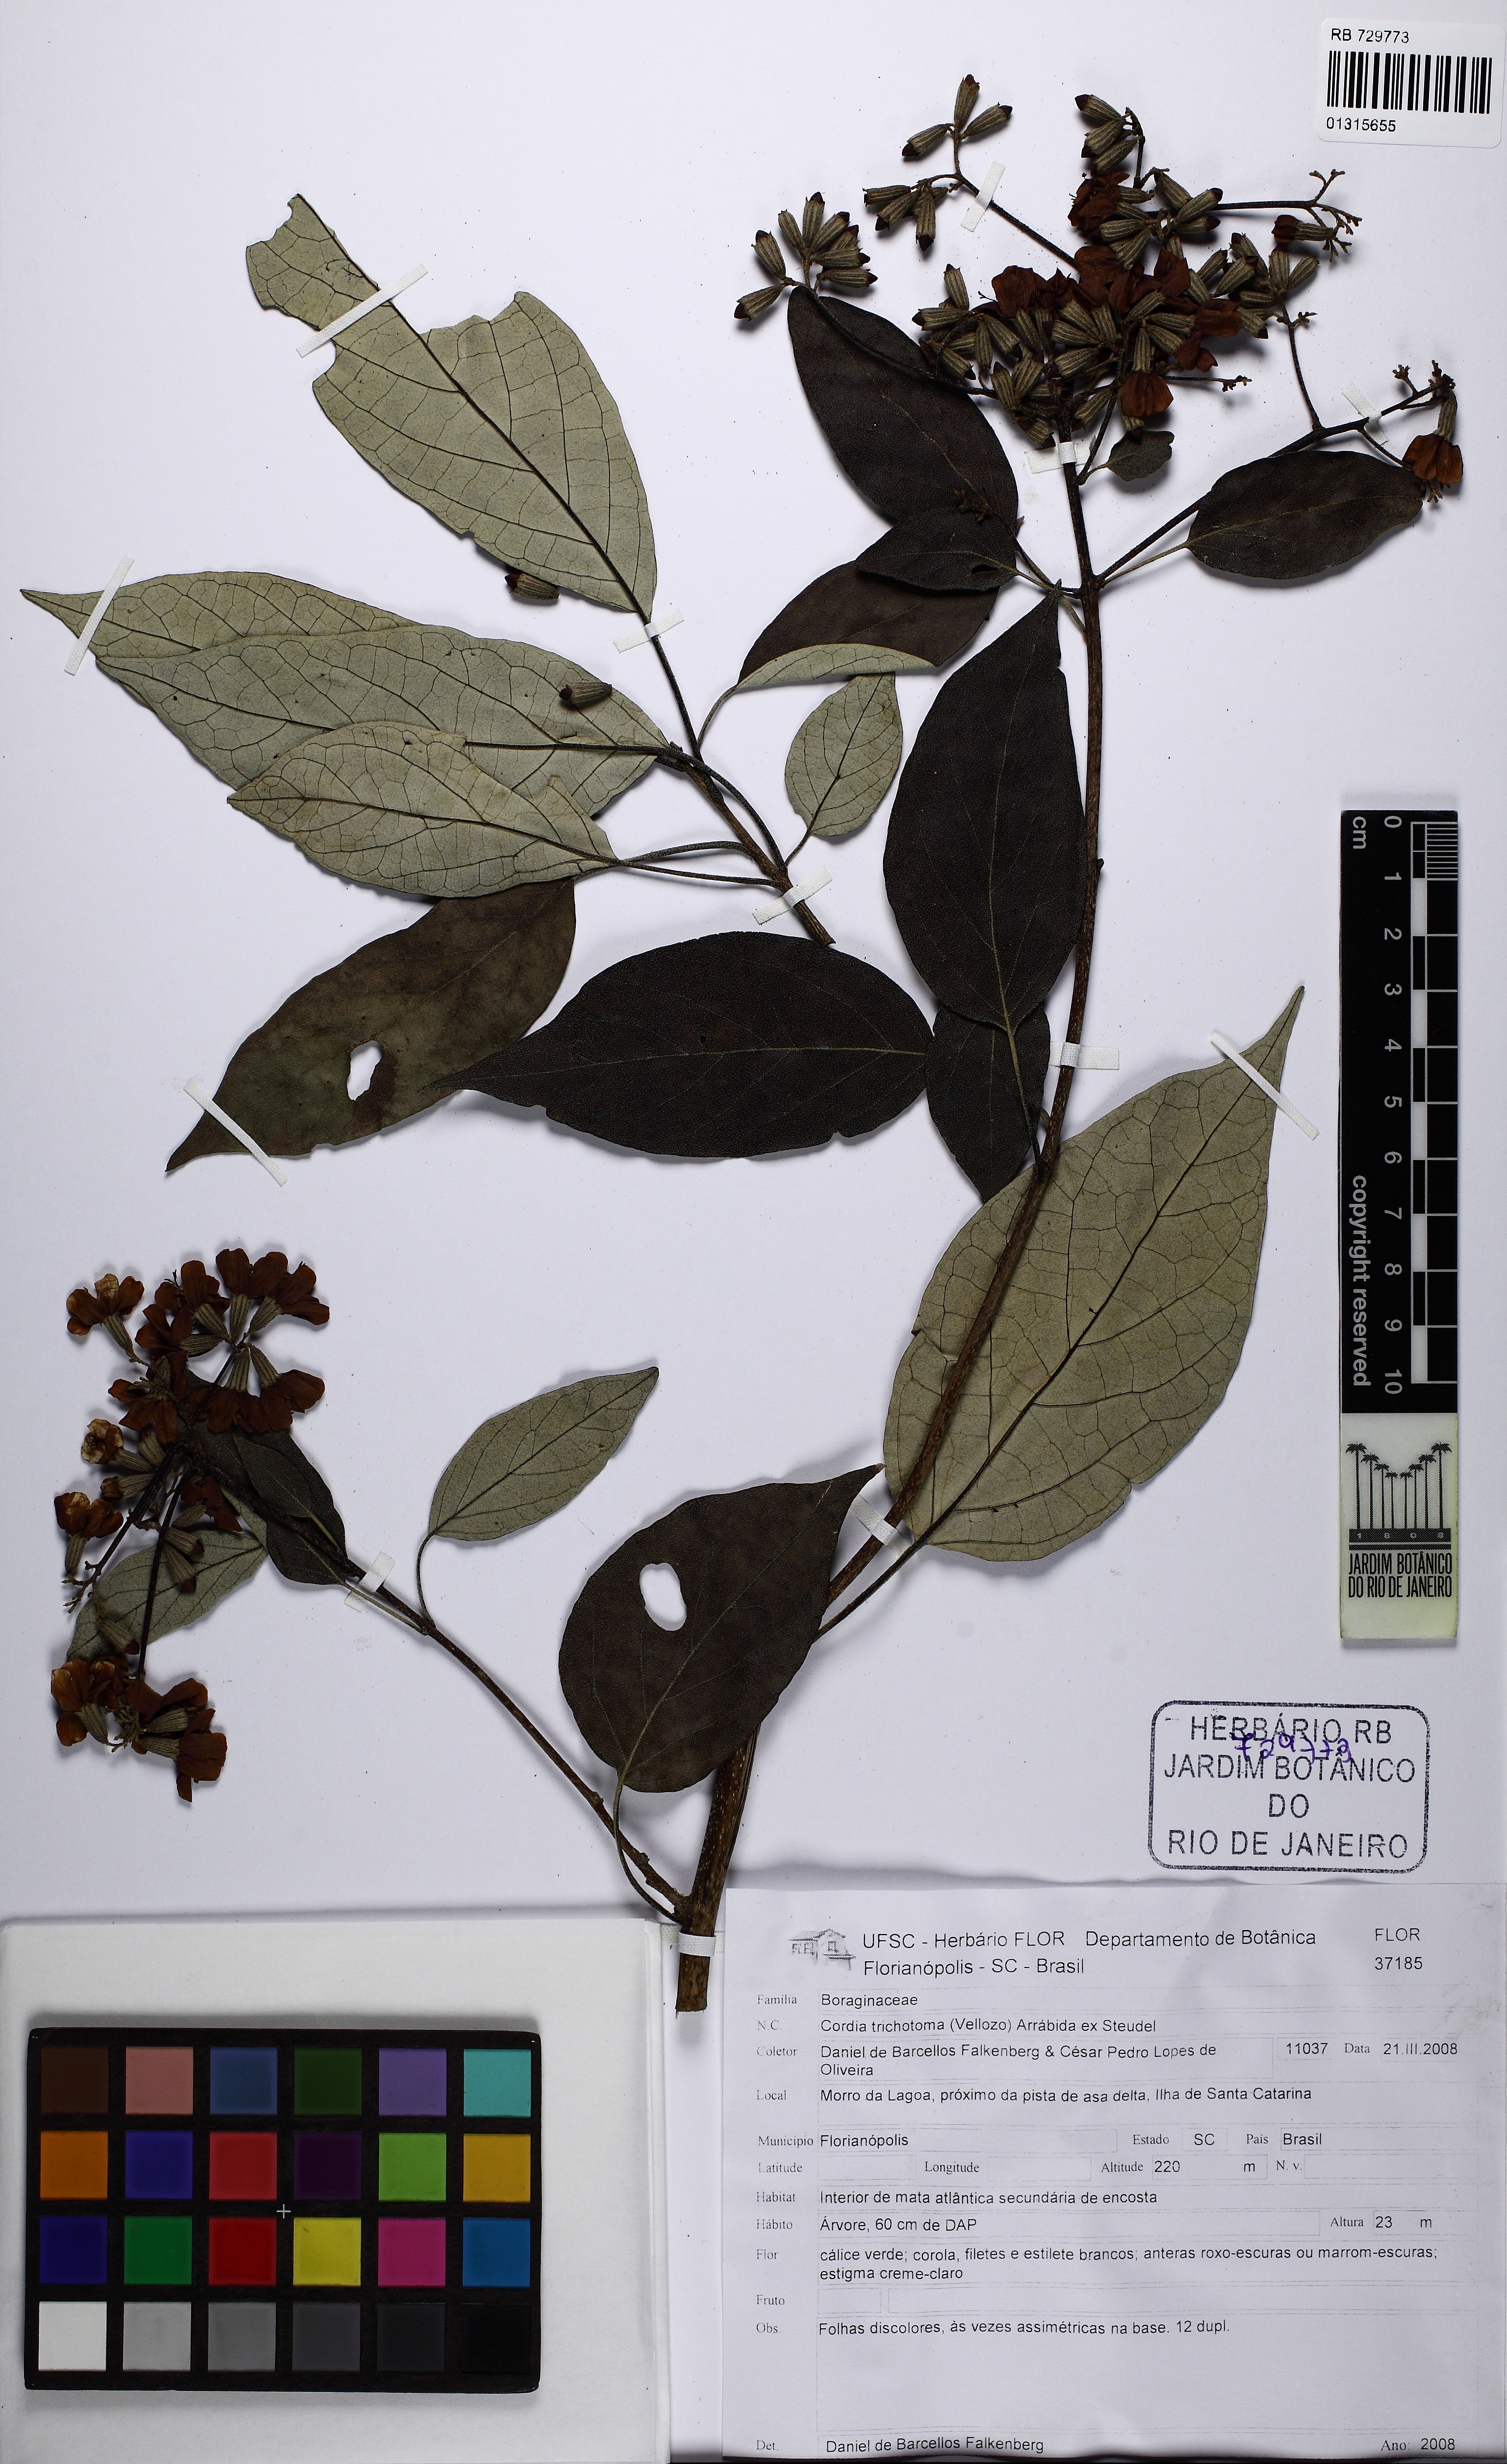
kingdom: Plantae
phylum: Tracheophyta
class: Magnoliopsida
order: Boraginales
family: Cordiaceae
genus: Cordia
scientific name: Cordia trichotoma
